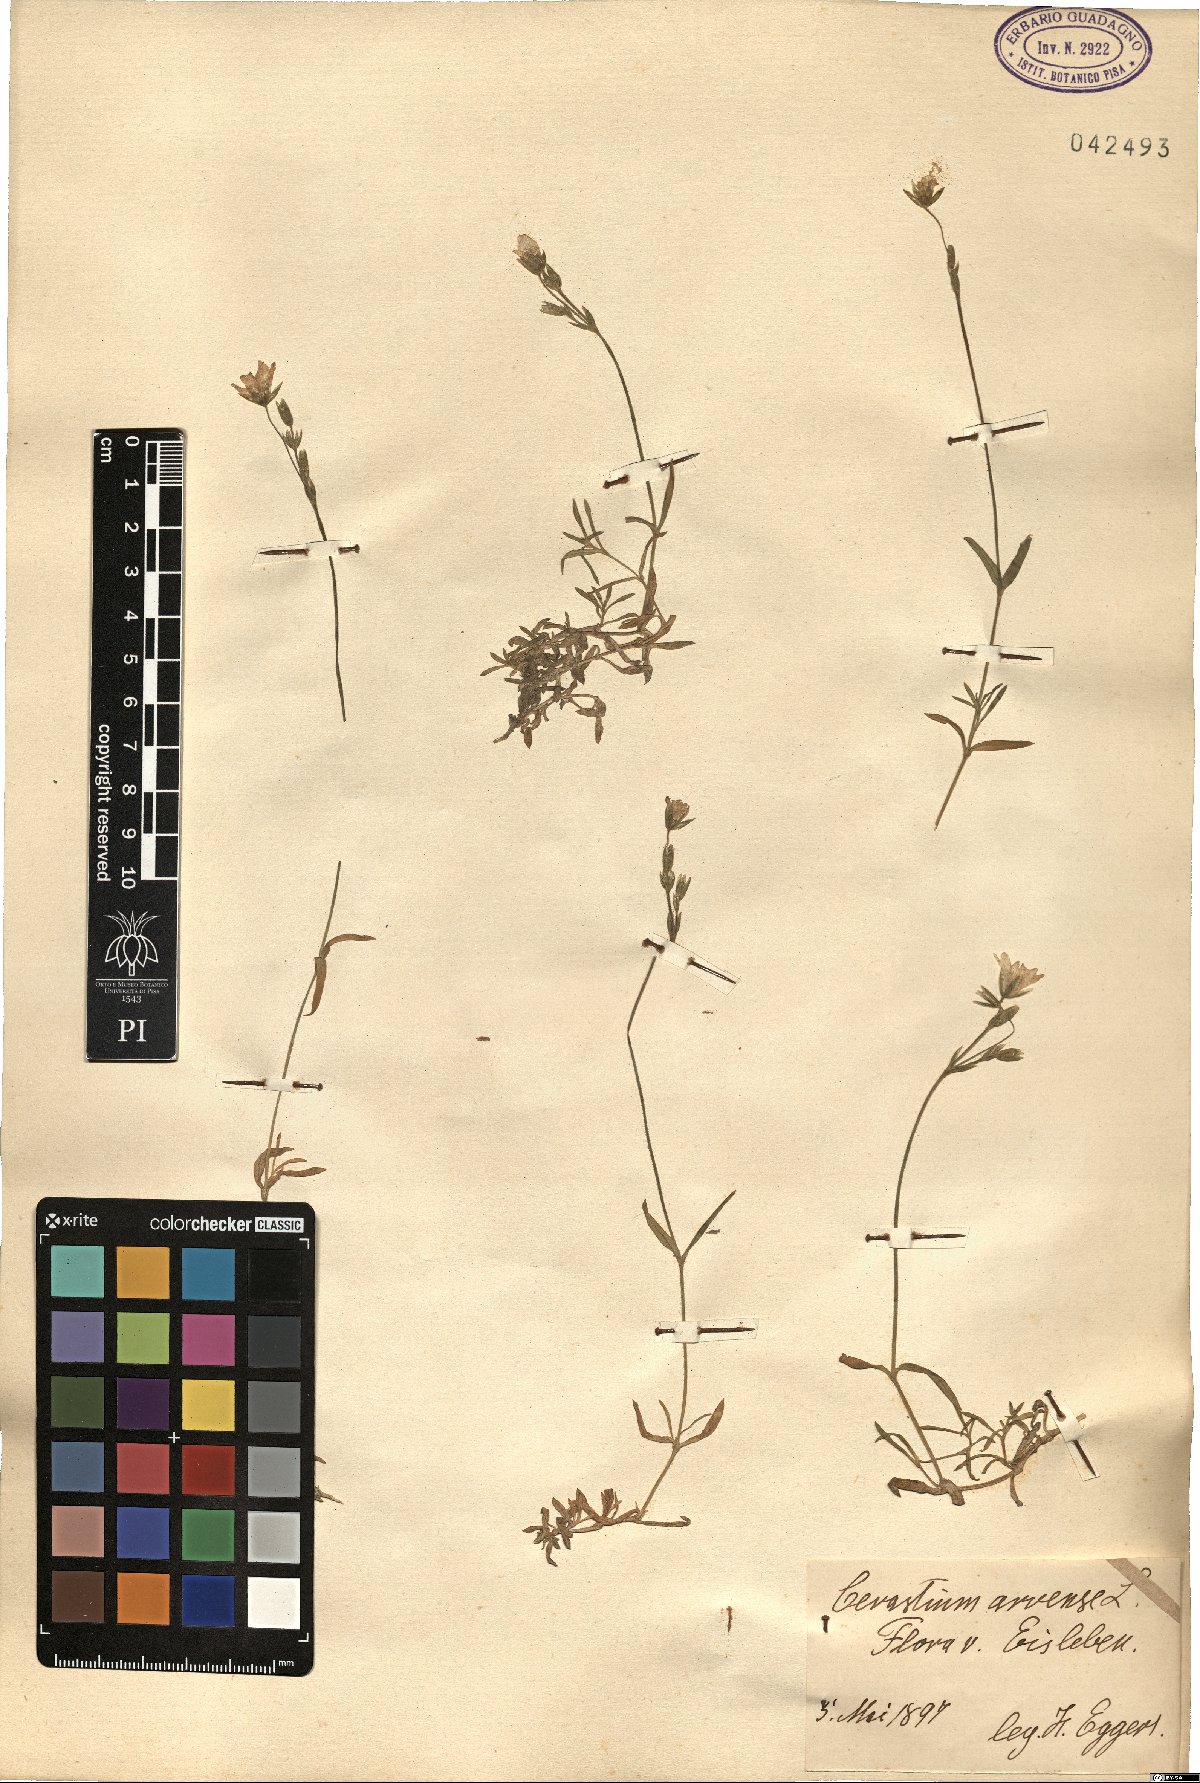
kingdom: Plantae
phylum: Tracheophyta
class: Magnoliopsida
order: Caryophyllales
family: Caryophyllaceae
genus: Cerastium
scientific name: Cerastium arvense
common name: Field mouse-ear
